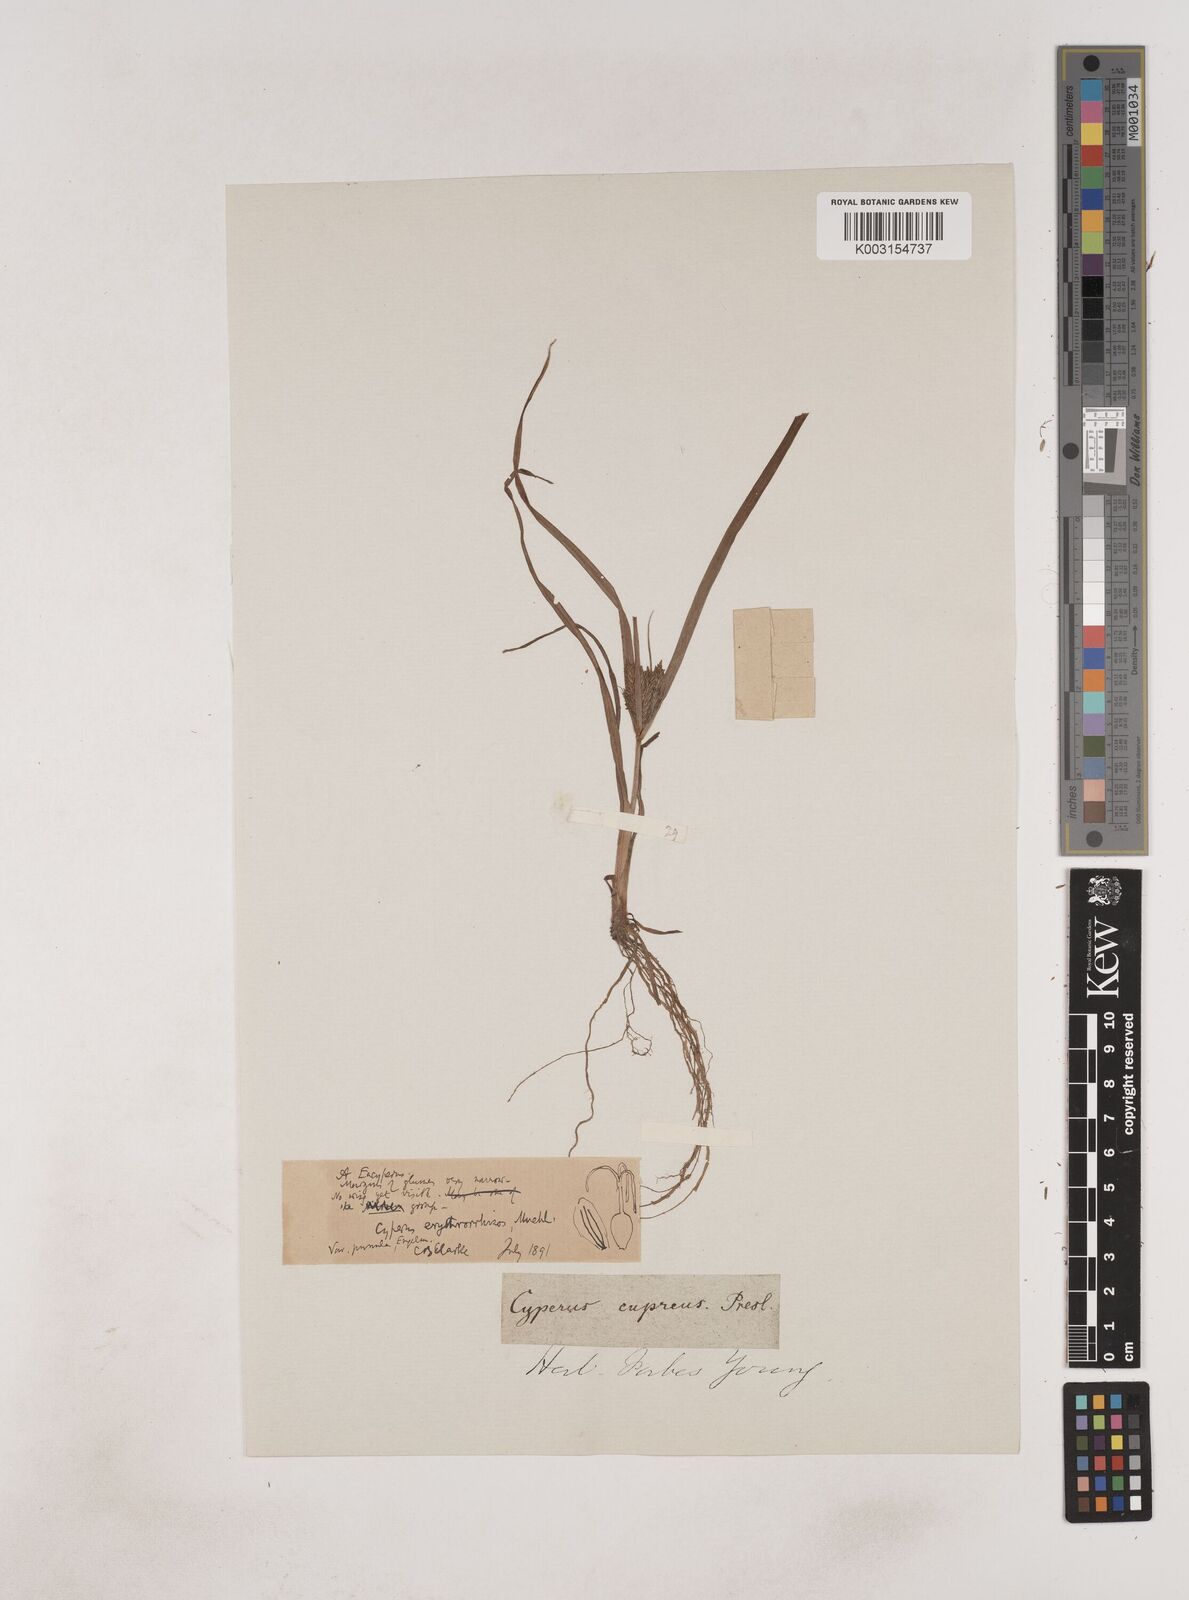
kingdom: Plantae
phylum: Tracheophyta
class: Liliopsida
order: Poales
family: Cyperaceae
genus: Cyperus
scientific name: Cyperus erythrorhizos
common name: Red-root flat sedge
